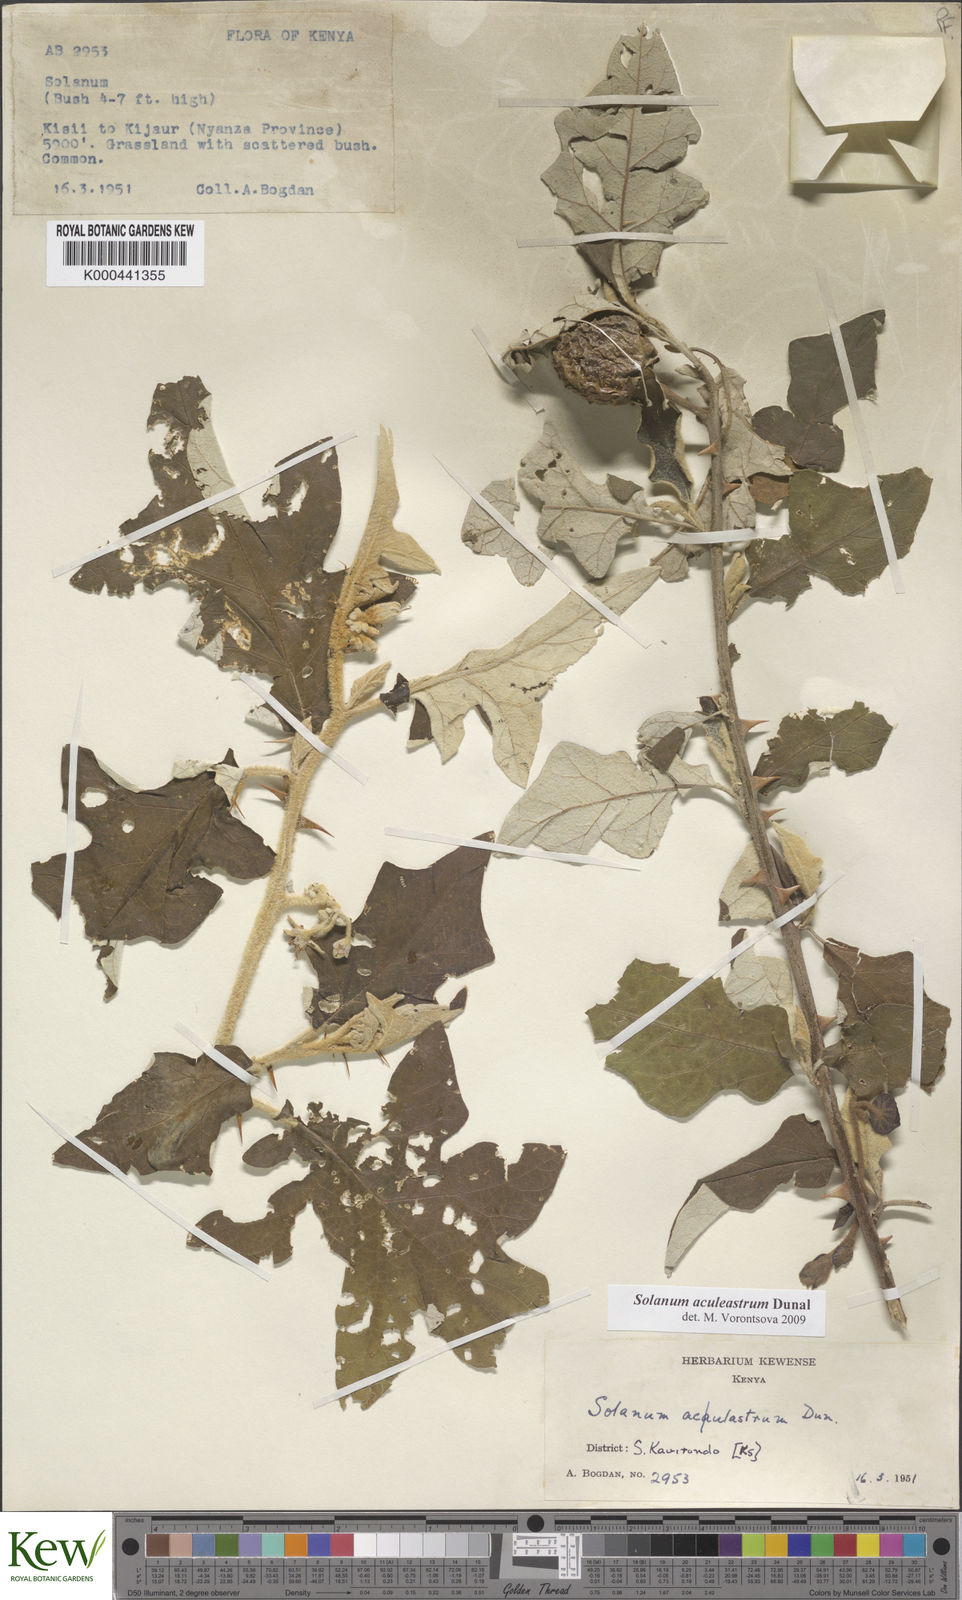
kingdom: Plantae
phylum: Tracheophyta
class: Magnoliopsida
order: Solanales
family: Solanaceae
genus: Solanum
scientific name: Solanum aculeastrum
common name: Goat bitter-apple
